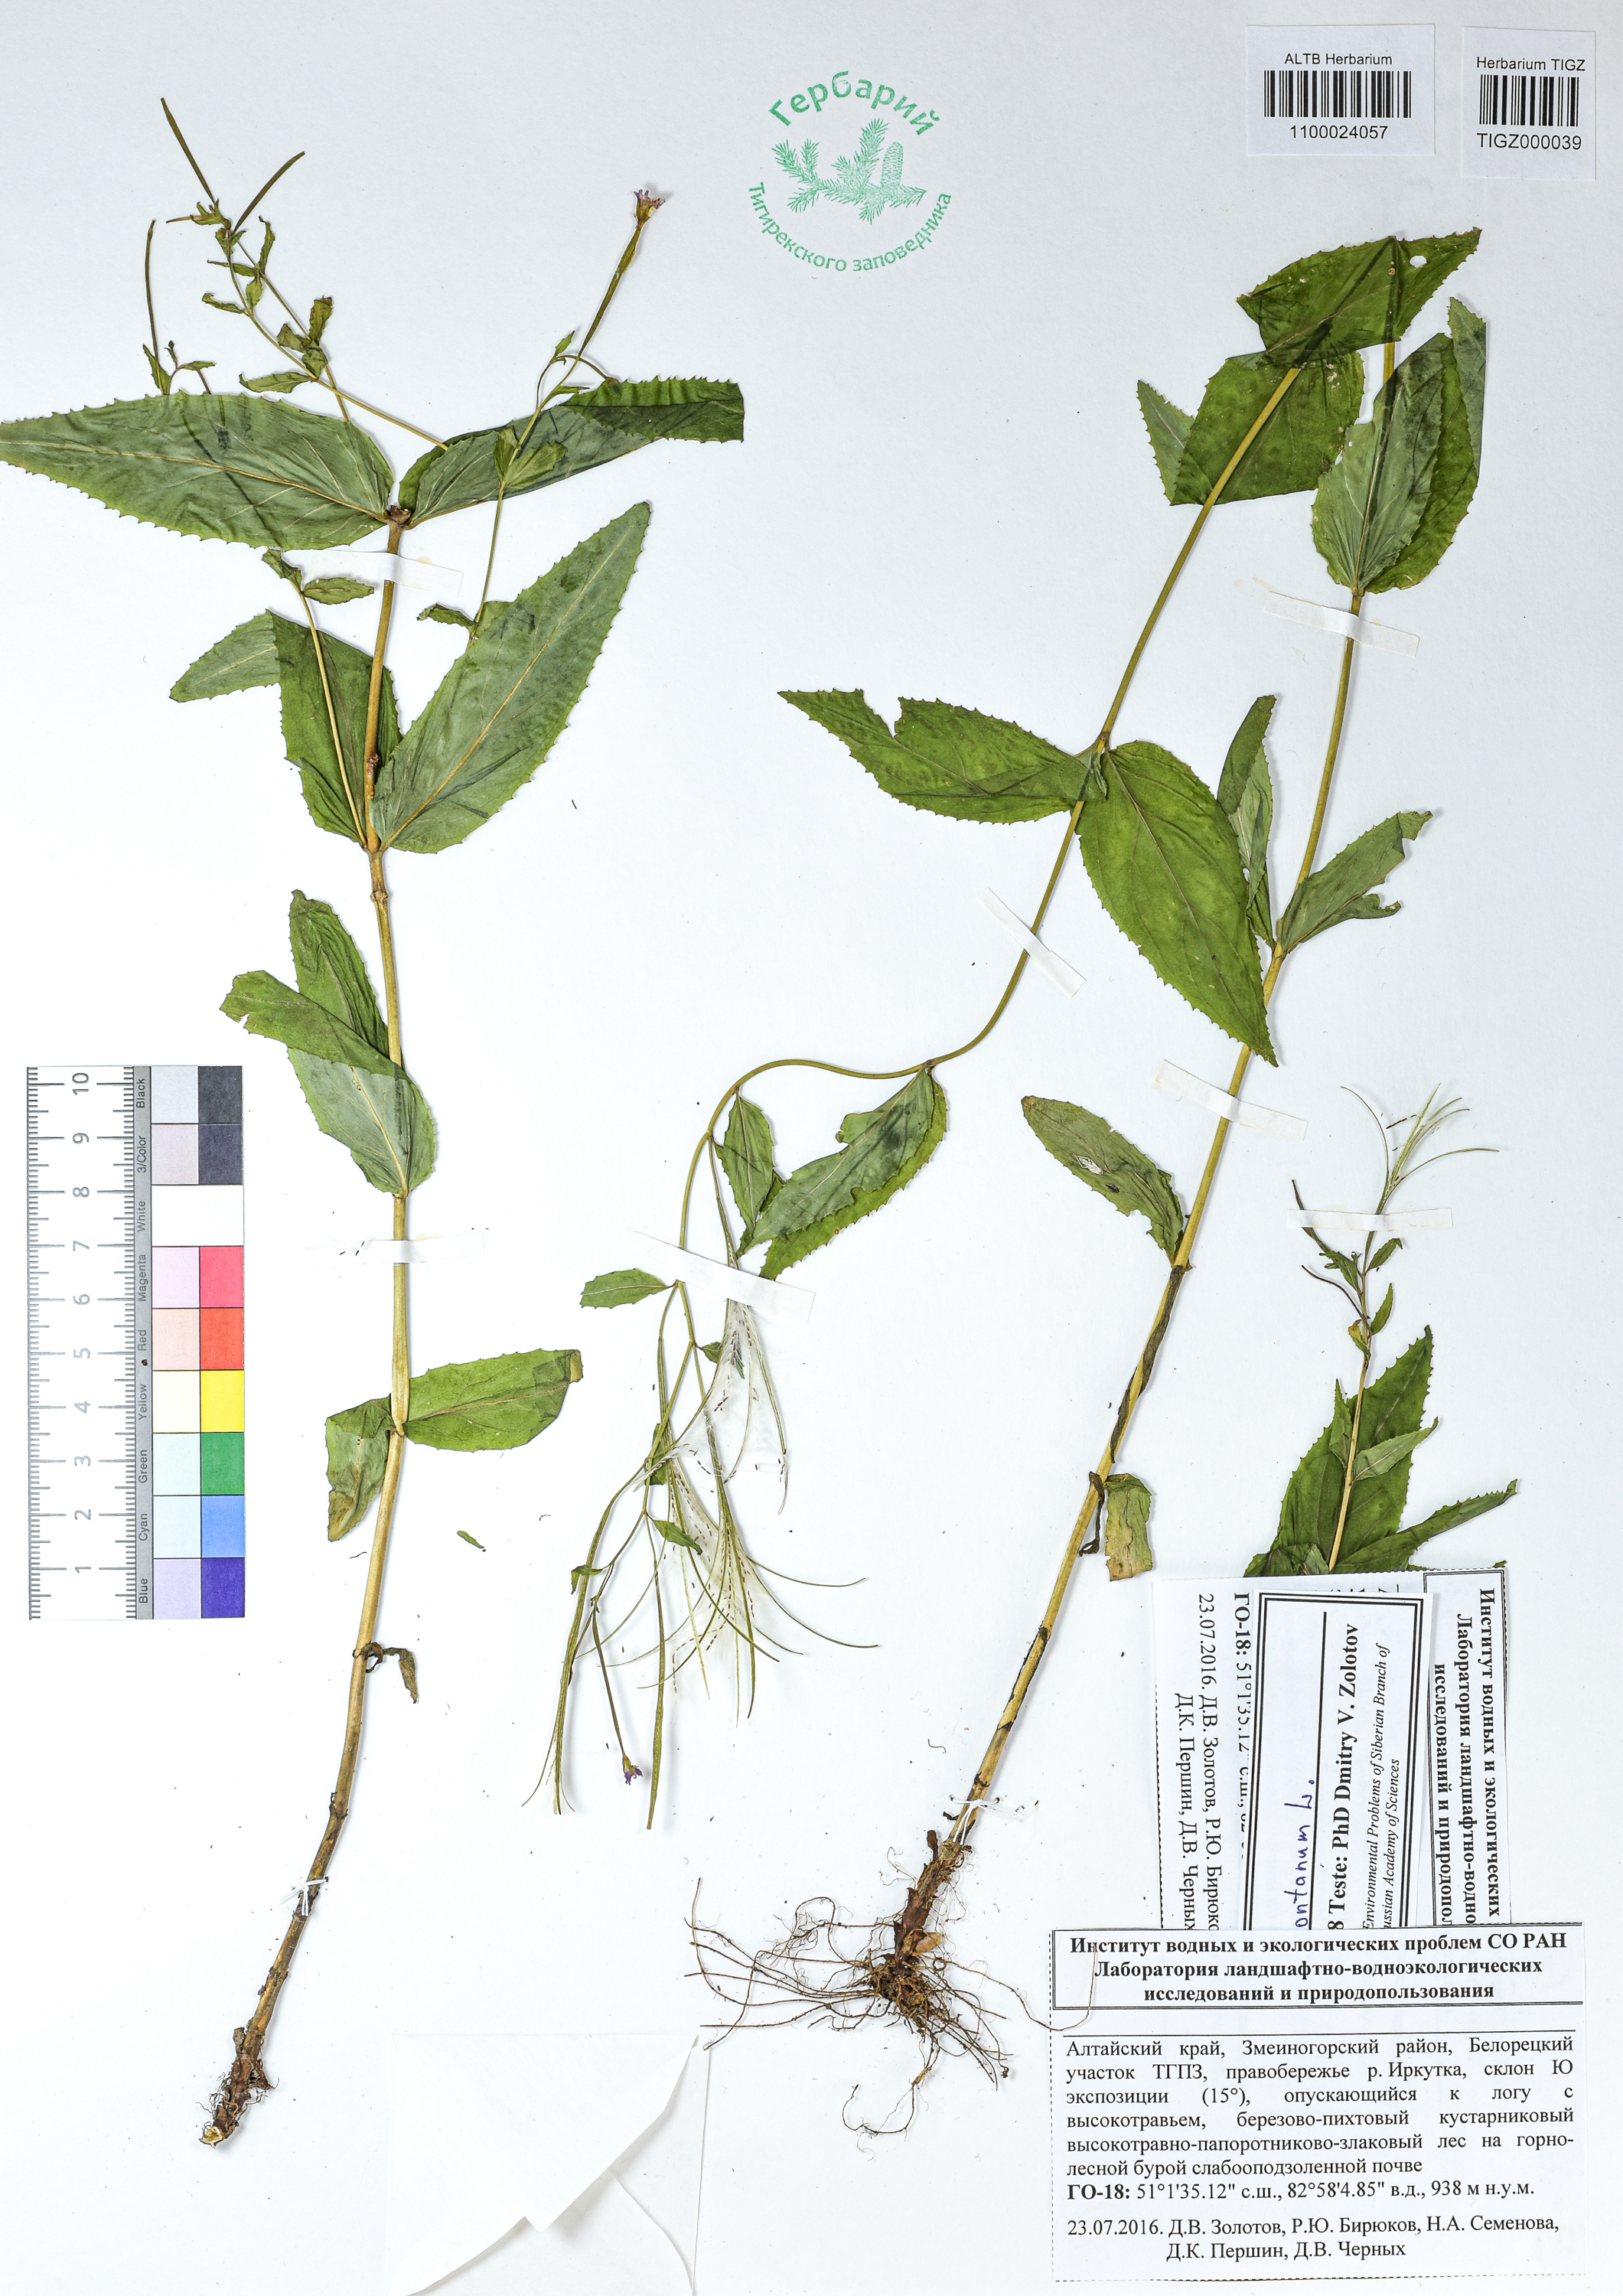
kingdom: Plantae
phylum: Tracheophyta
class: Magnoliopsida
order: Myrtales
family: Onagraceae
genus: Epilobium
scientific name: Epilobium montanum
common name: Broad-leaved willowherb
